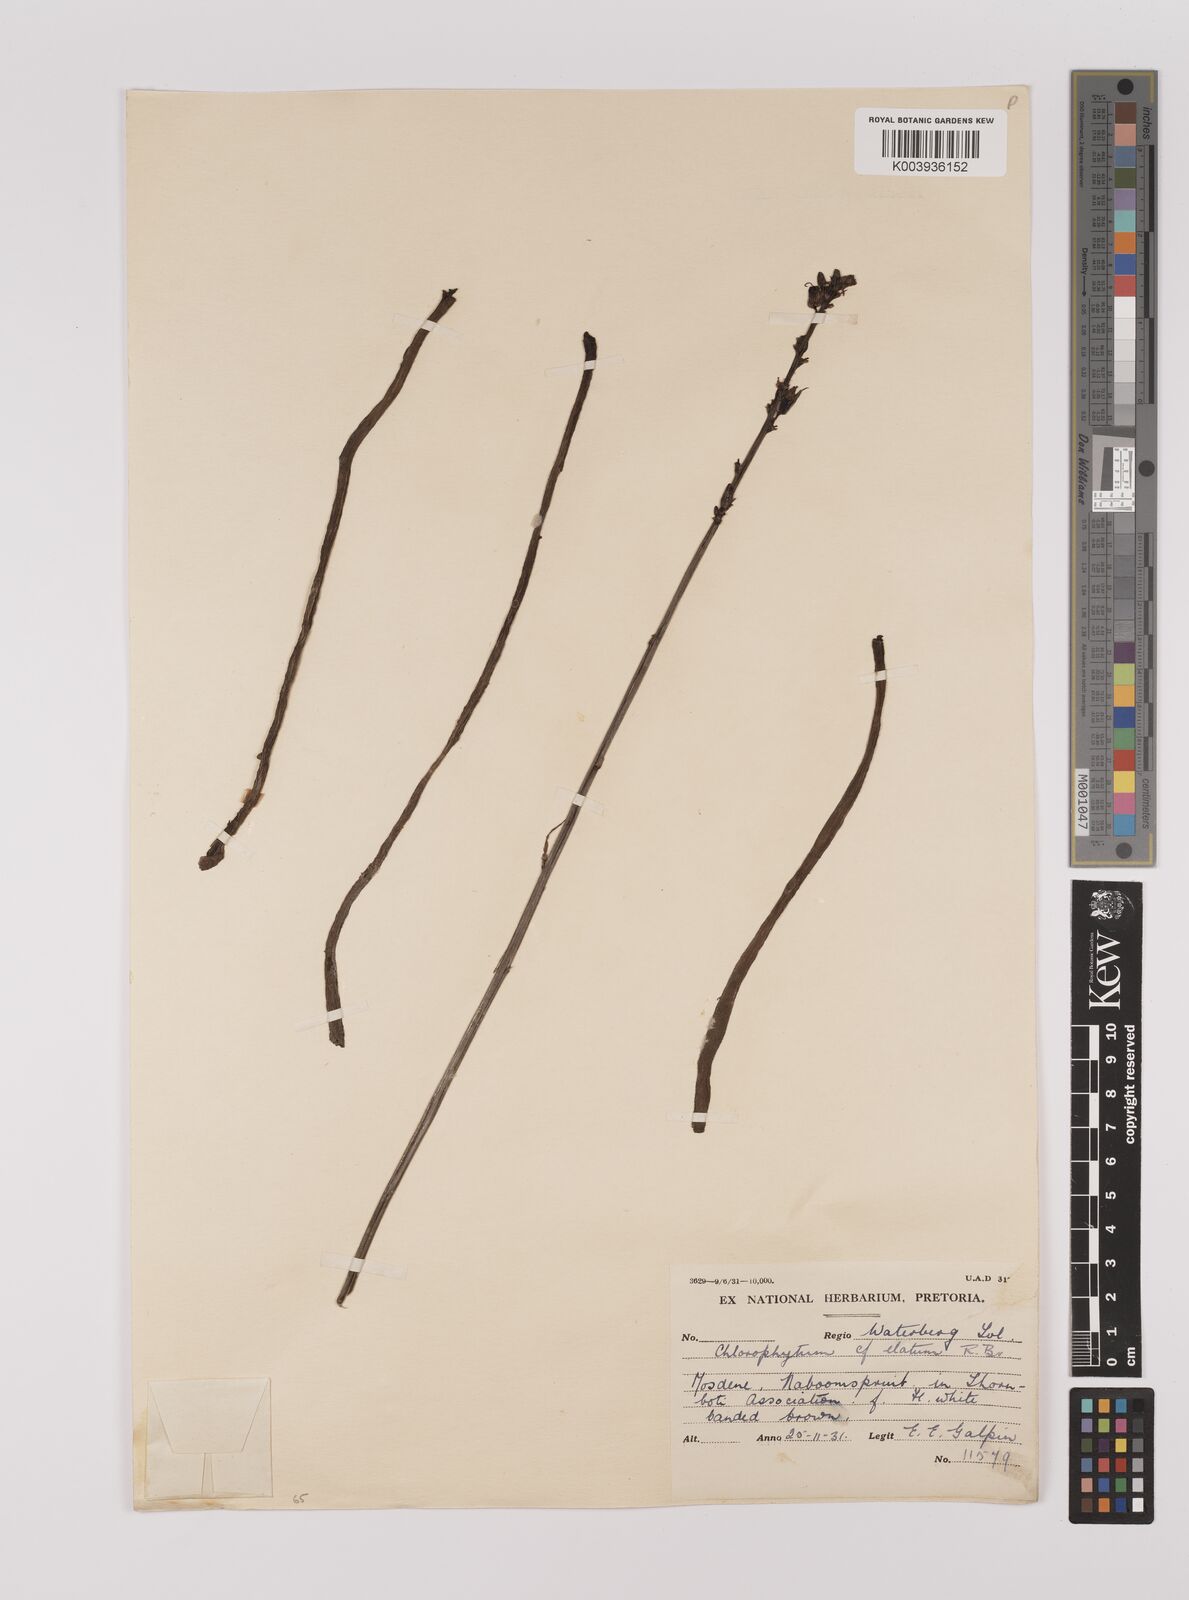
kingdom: Plantae
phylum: Tracheophyta
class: Liliopsida
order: Asparagales
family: Asparagaceae
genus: Chlorophytum
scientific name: Chlorophytum
